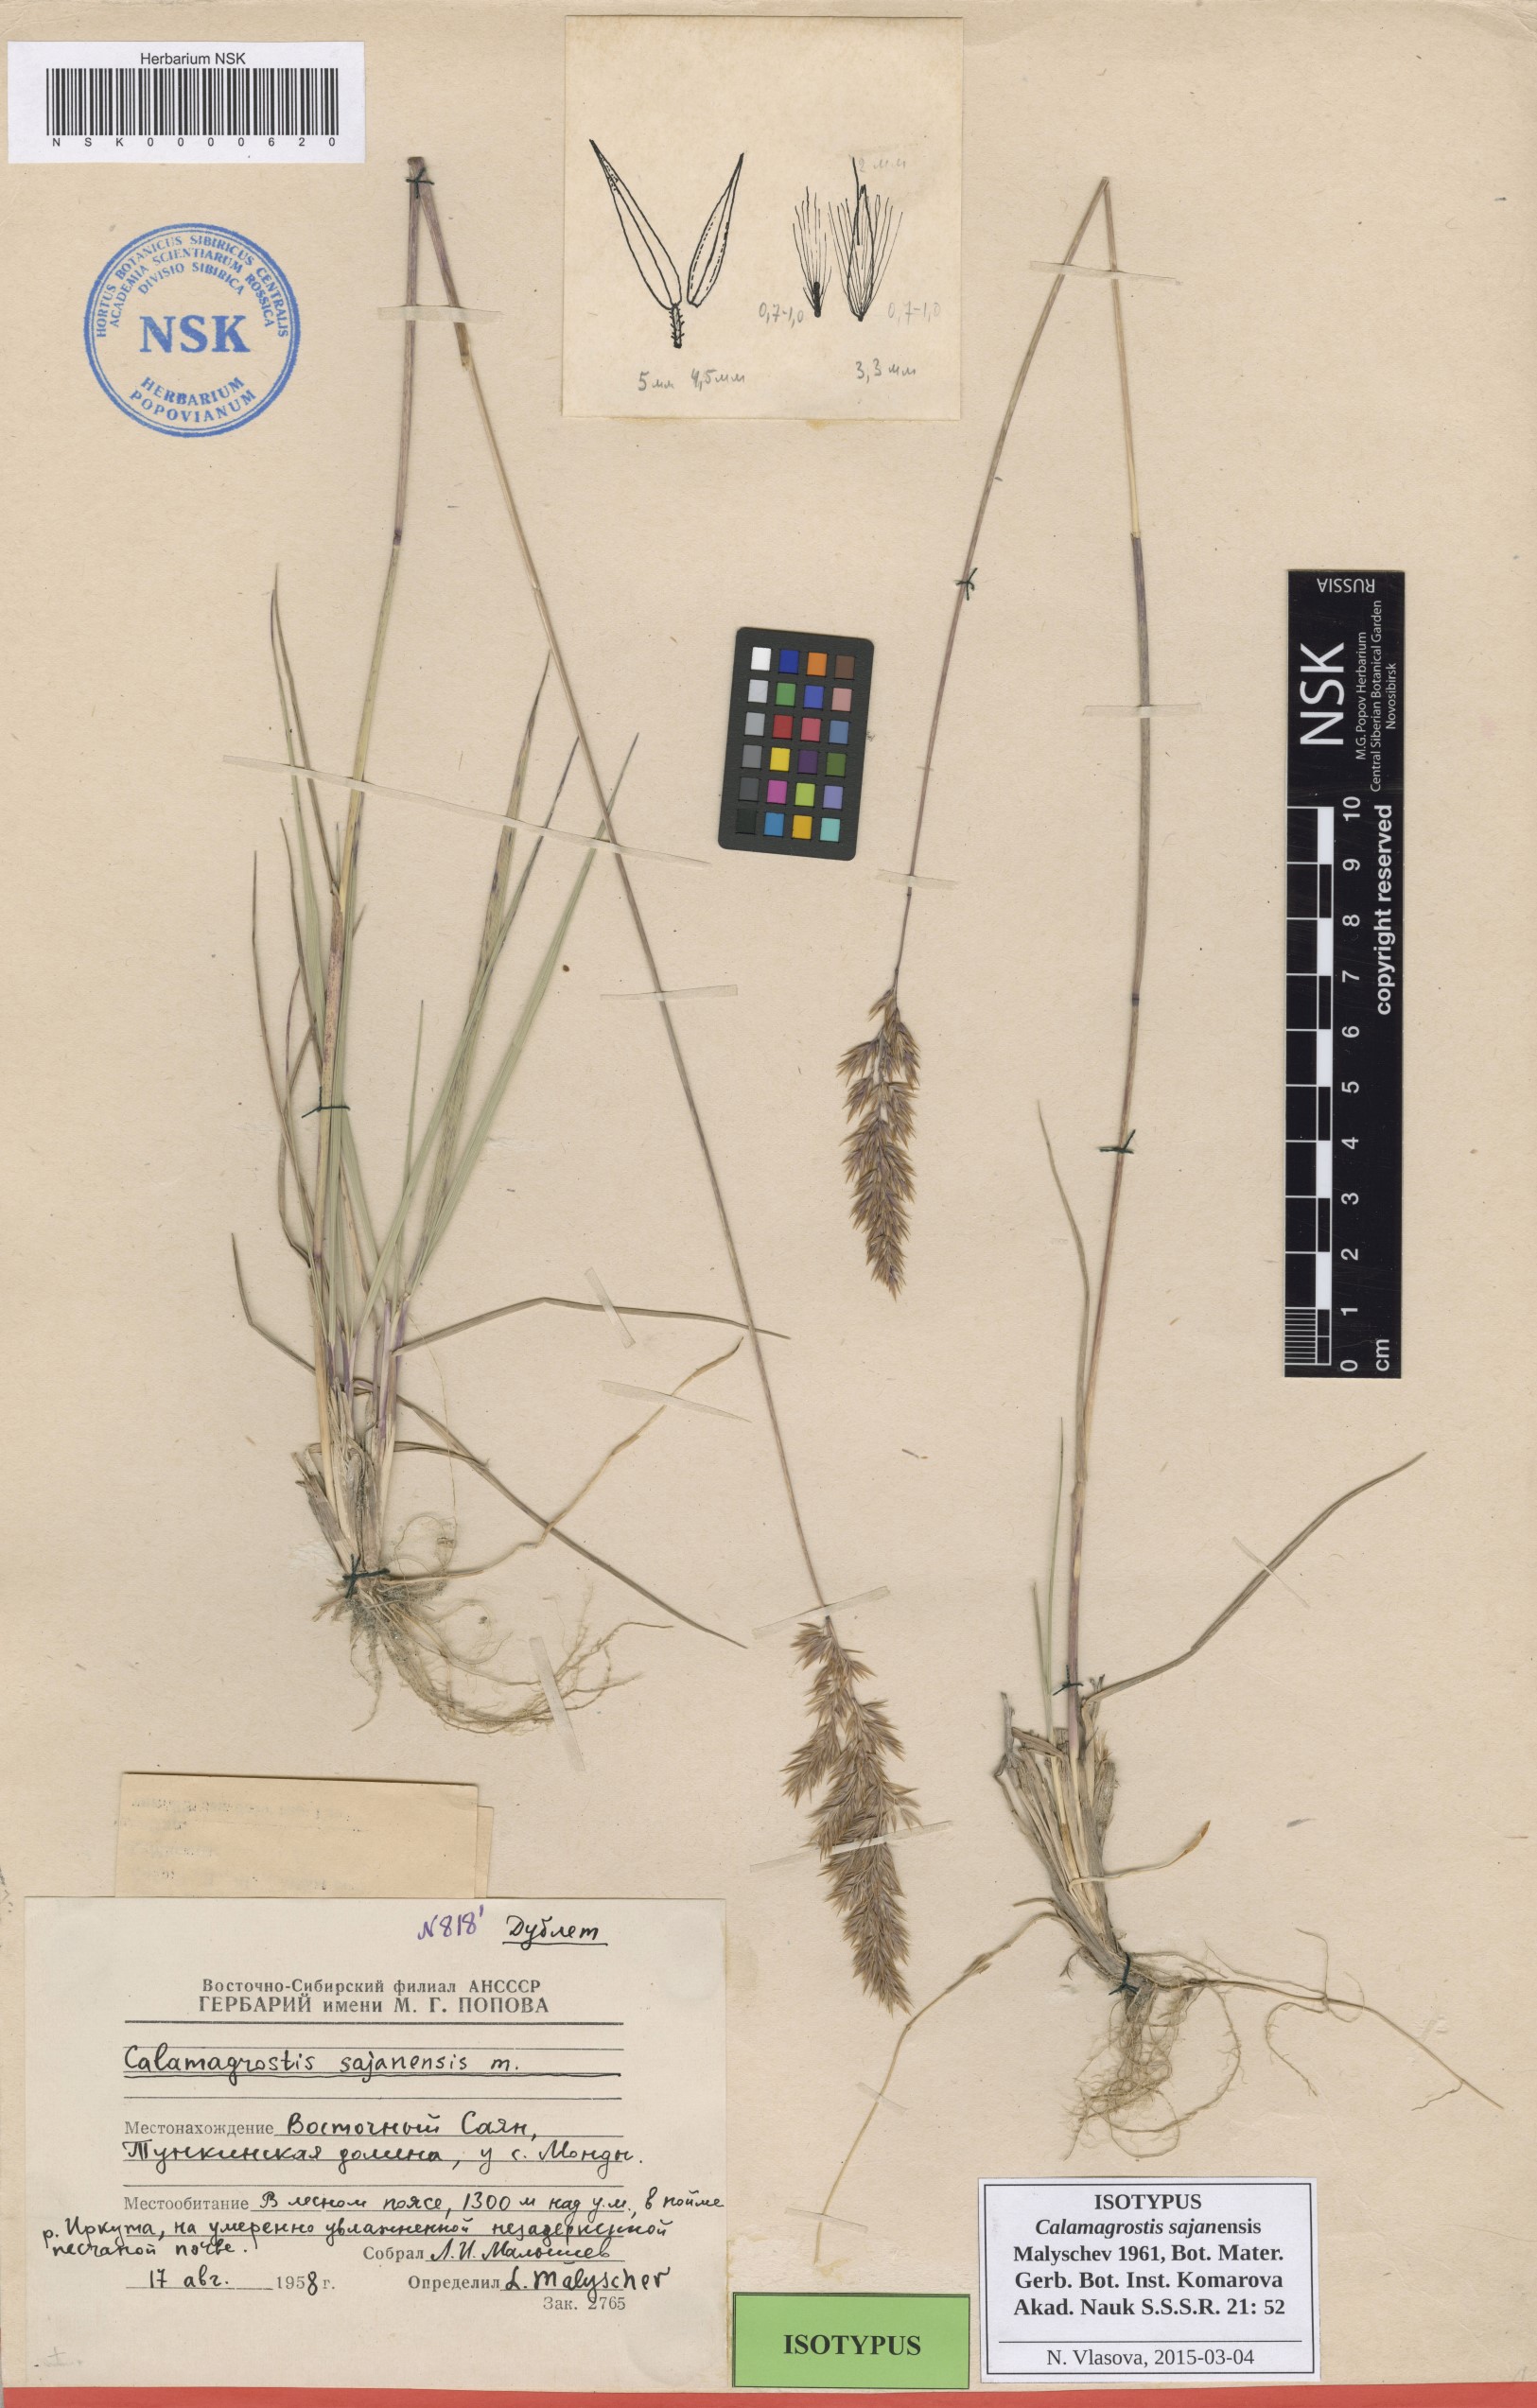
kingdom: Plantae
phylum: Tracheophyta
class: Liliopsida
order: Poales
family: Poaceae
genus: Calamagrostis
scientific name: Calamagrostis sajanensis
